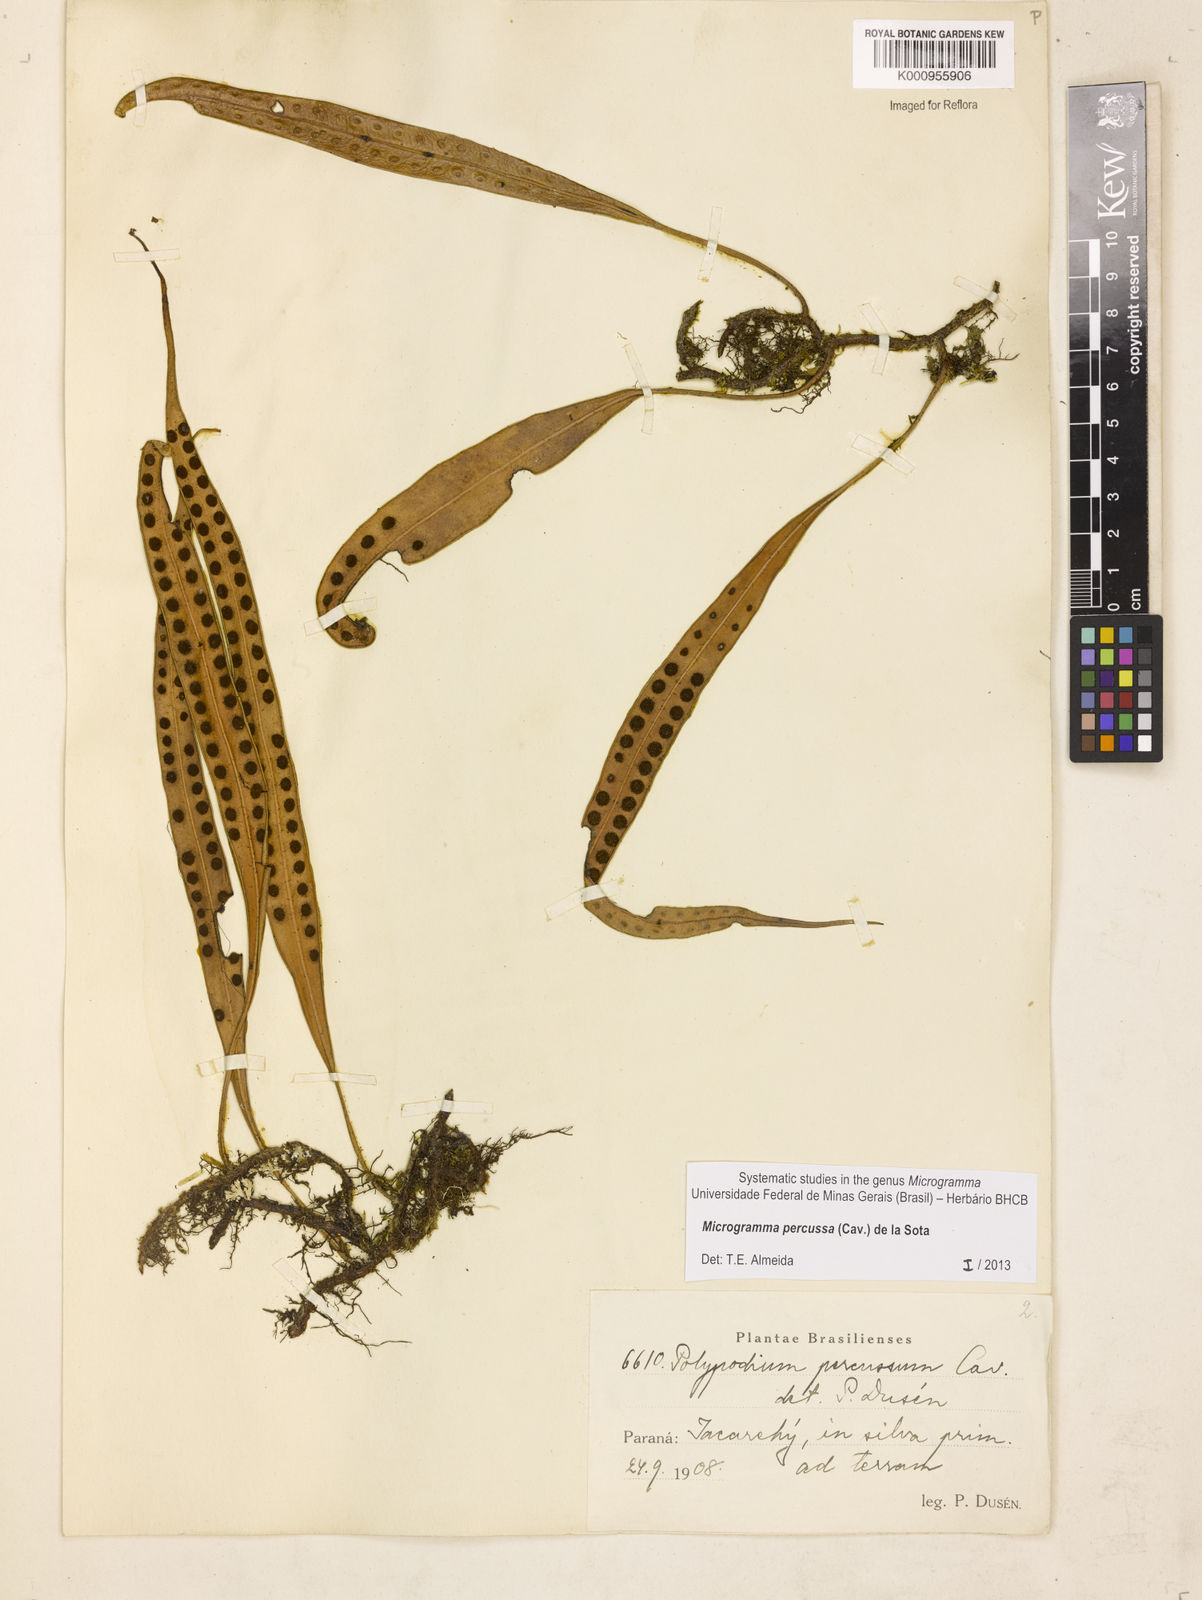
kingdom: Plantae
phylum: Tracheophyta
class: Polypodiopsida
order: Polypodiales
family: Polypodiaceae
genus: Microgramma
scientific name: Microgramma percussa
